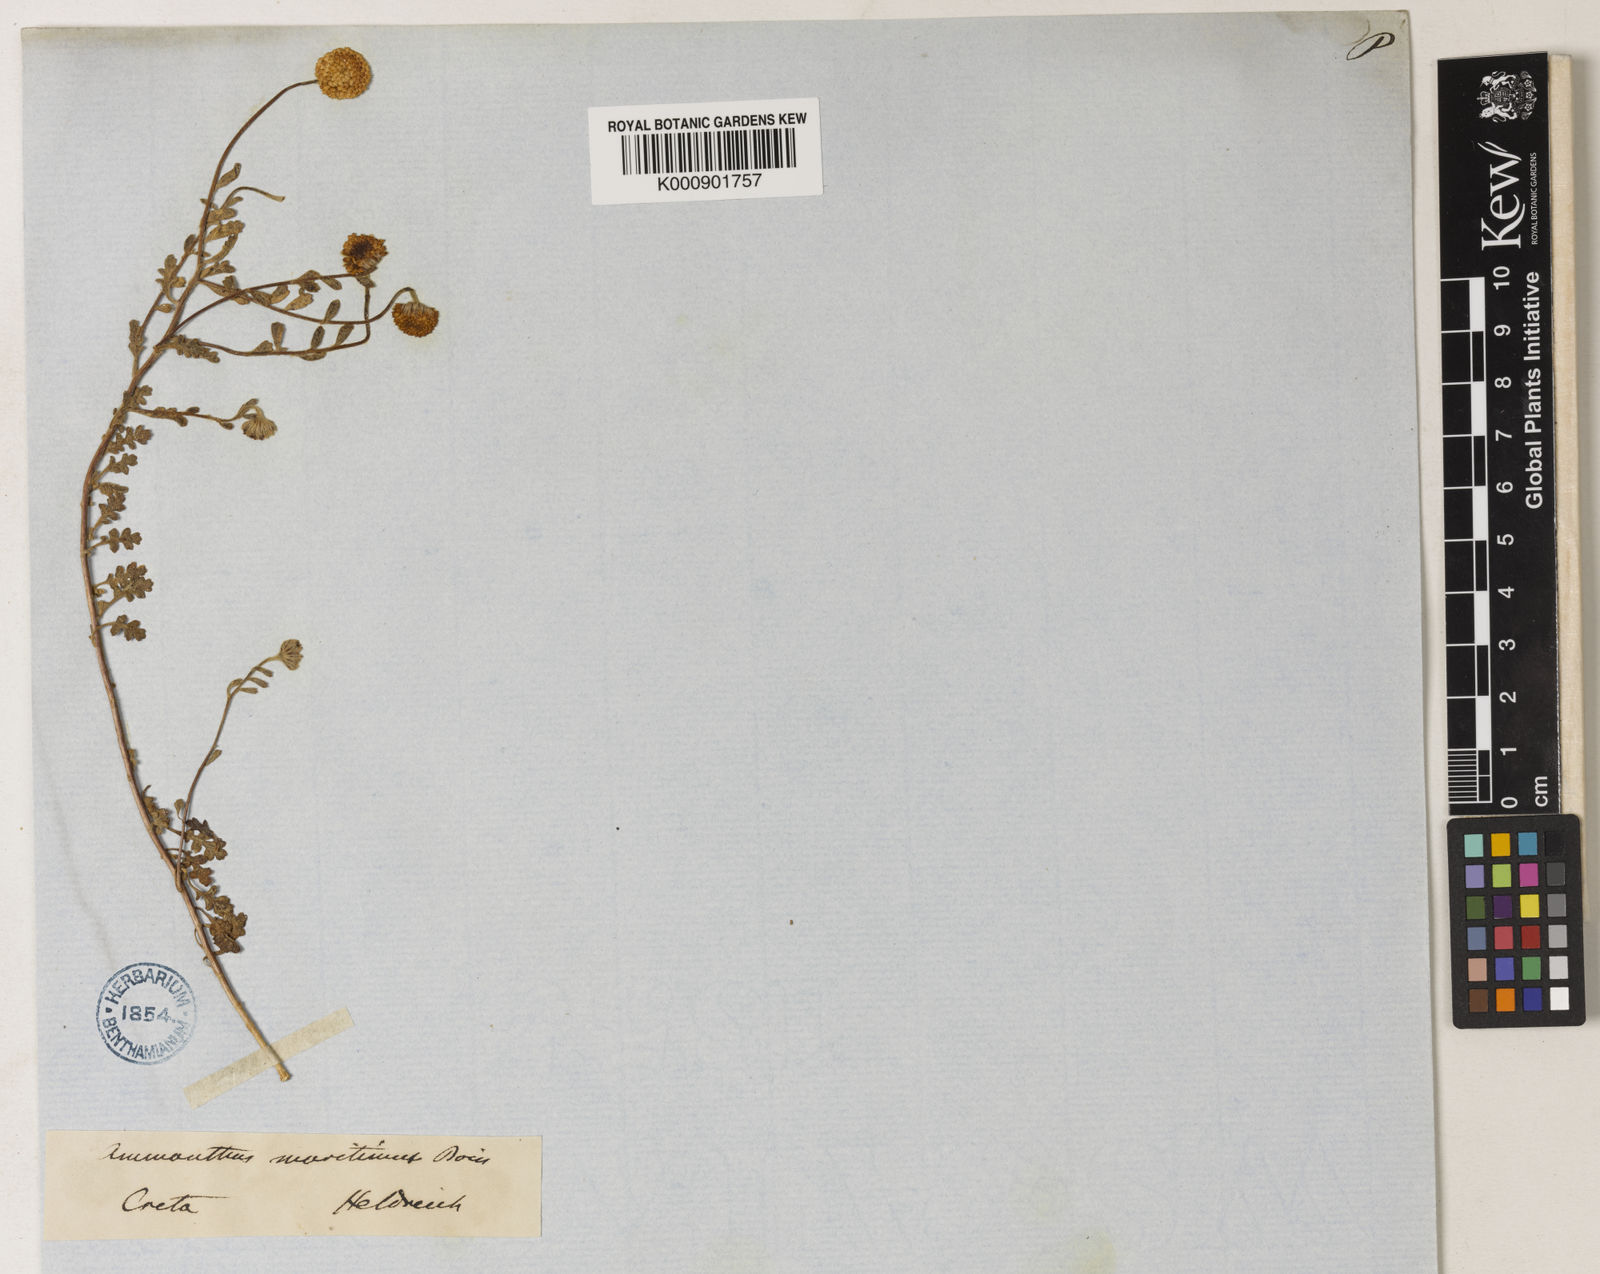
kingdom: Plantae
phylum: Tracheophyta
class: Magnoliopsida
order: Asterales
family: Asteraceae
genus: Anthemis
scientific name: Anthemis maritima
